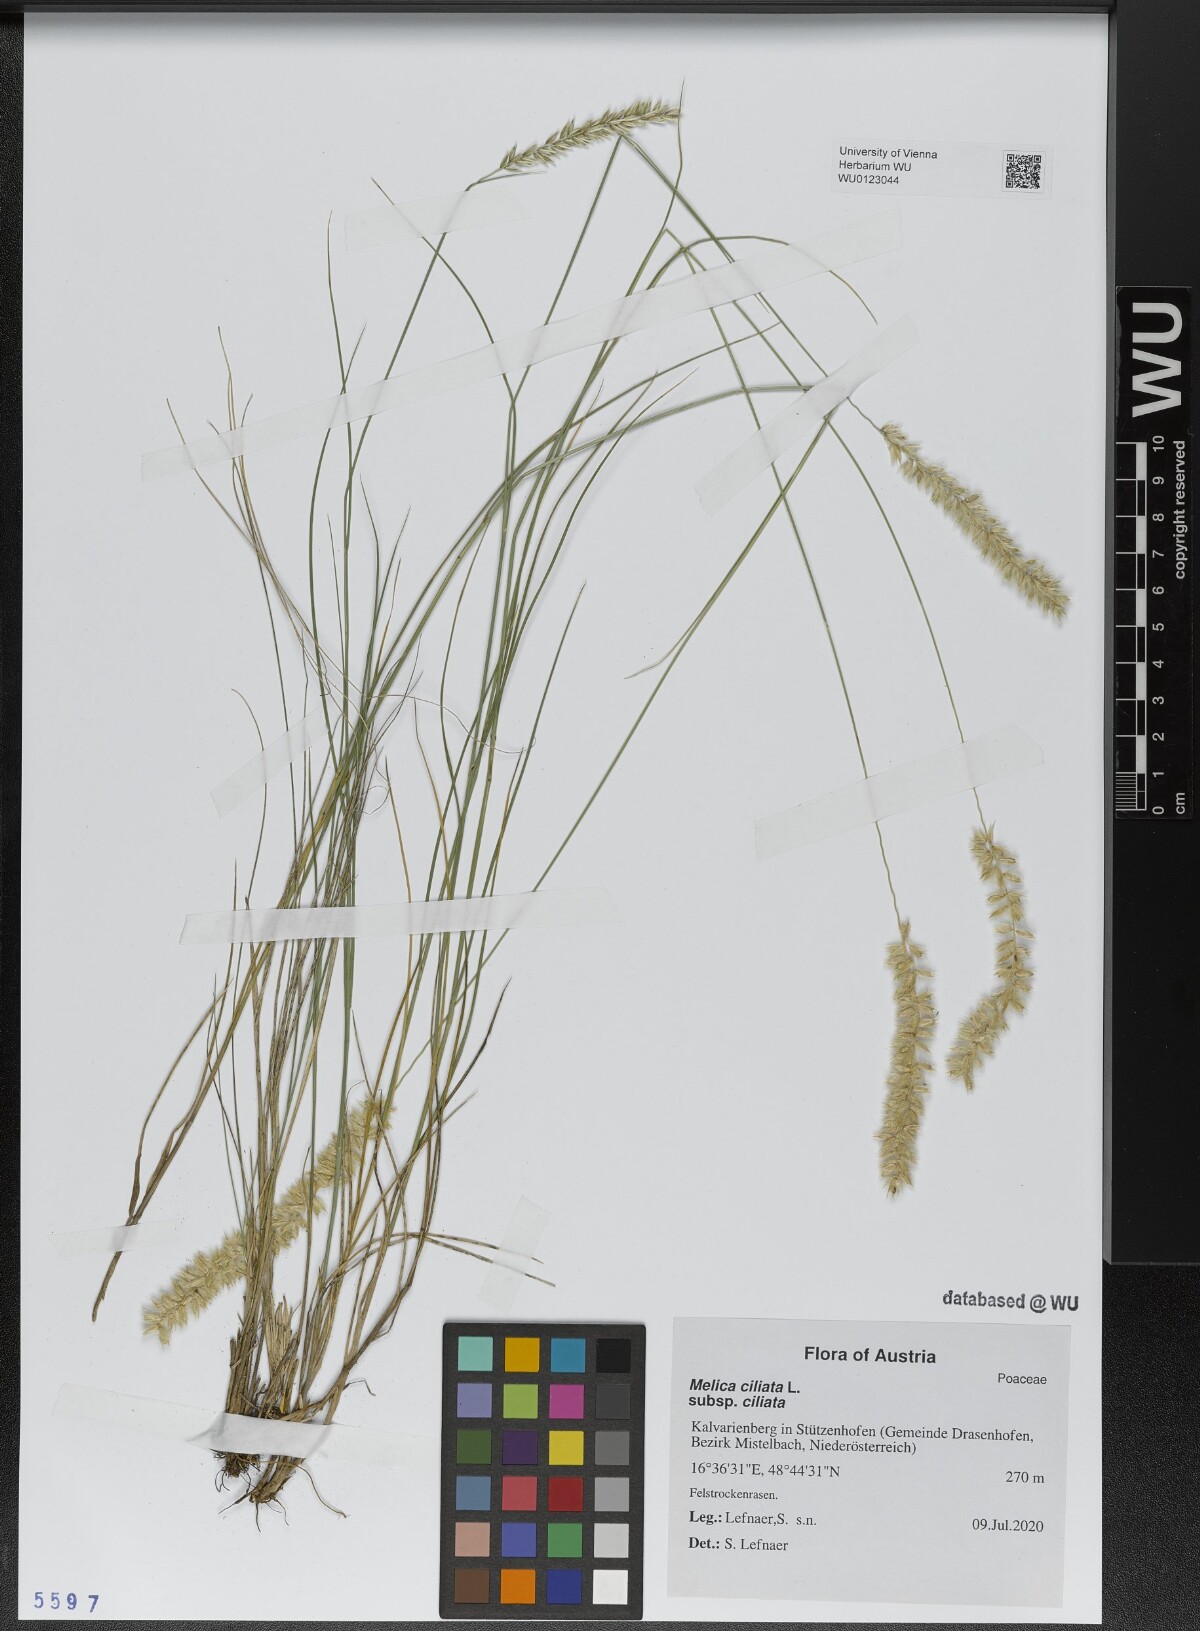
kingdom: Plantae
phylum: Tracheophyta
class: Liliopsida
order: Poales
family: Poaceae
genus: Melica
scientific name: Melica ciliata
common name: Hairy melicgrass
